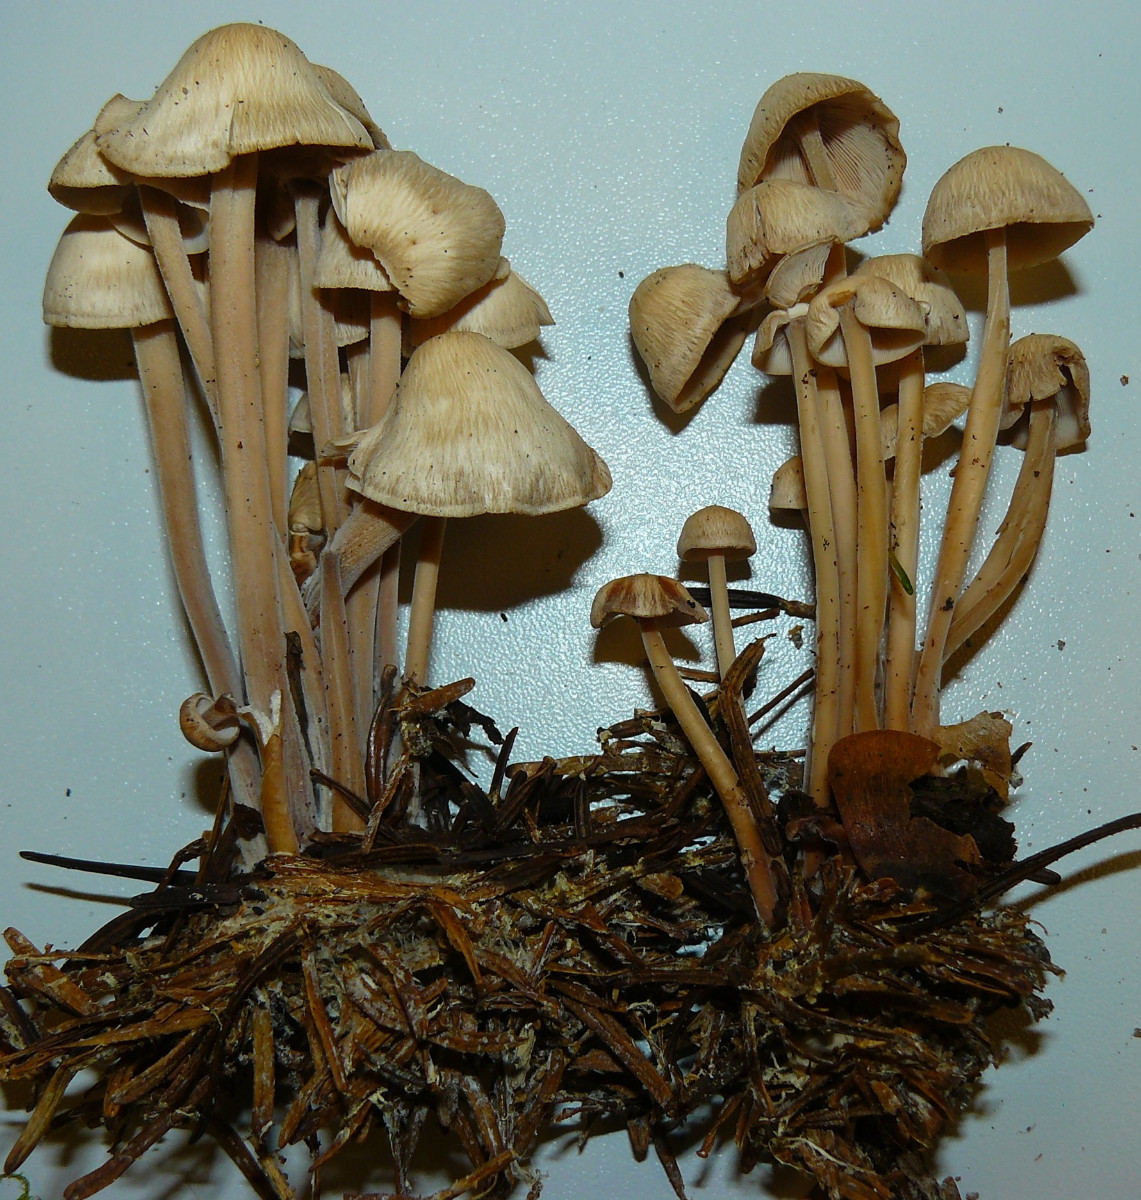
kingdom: Fungi
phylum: Basidiomycota
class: Agaricomycetes
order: Agaricales
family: Omphalotaceae
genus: Collybiopsis
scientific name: Collybiopsis confluens
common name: knippe-fladhat
